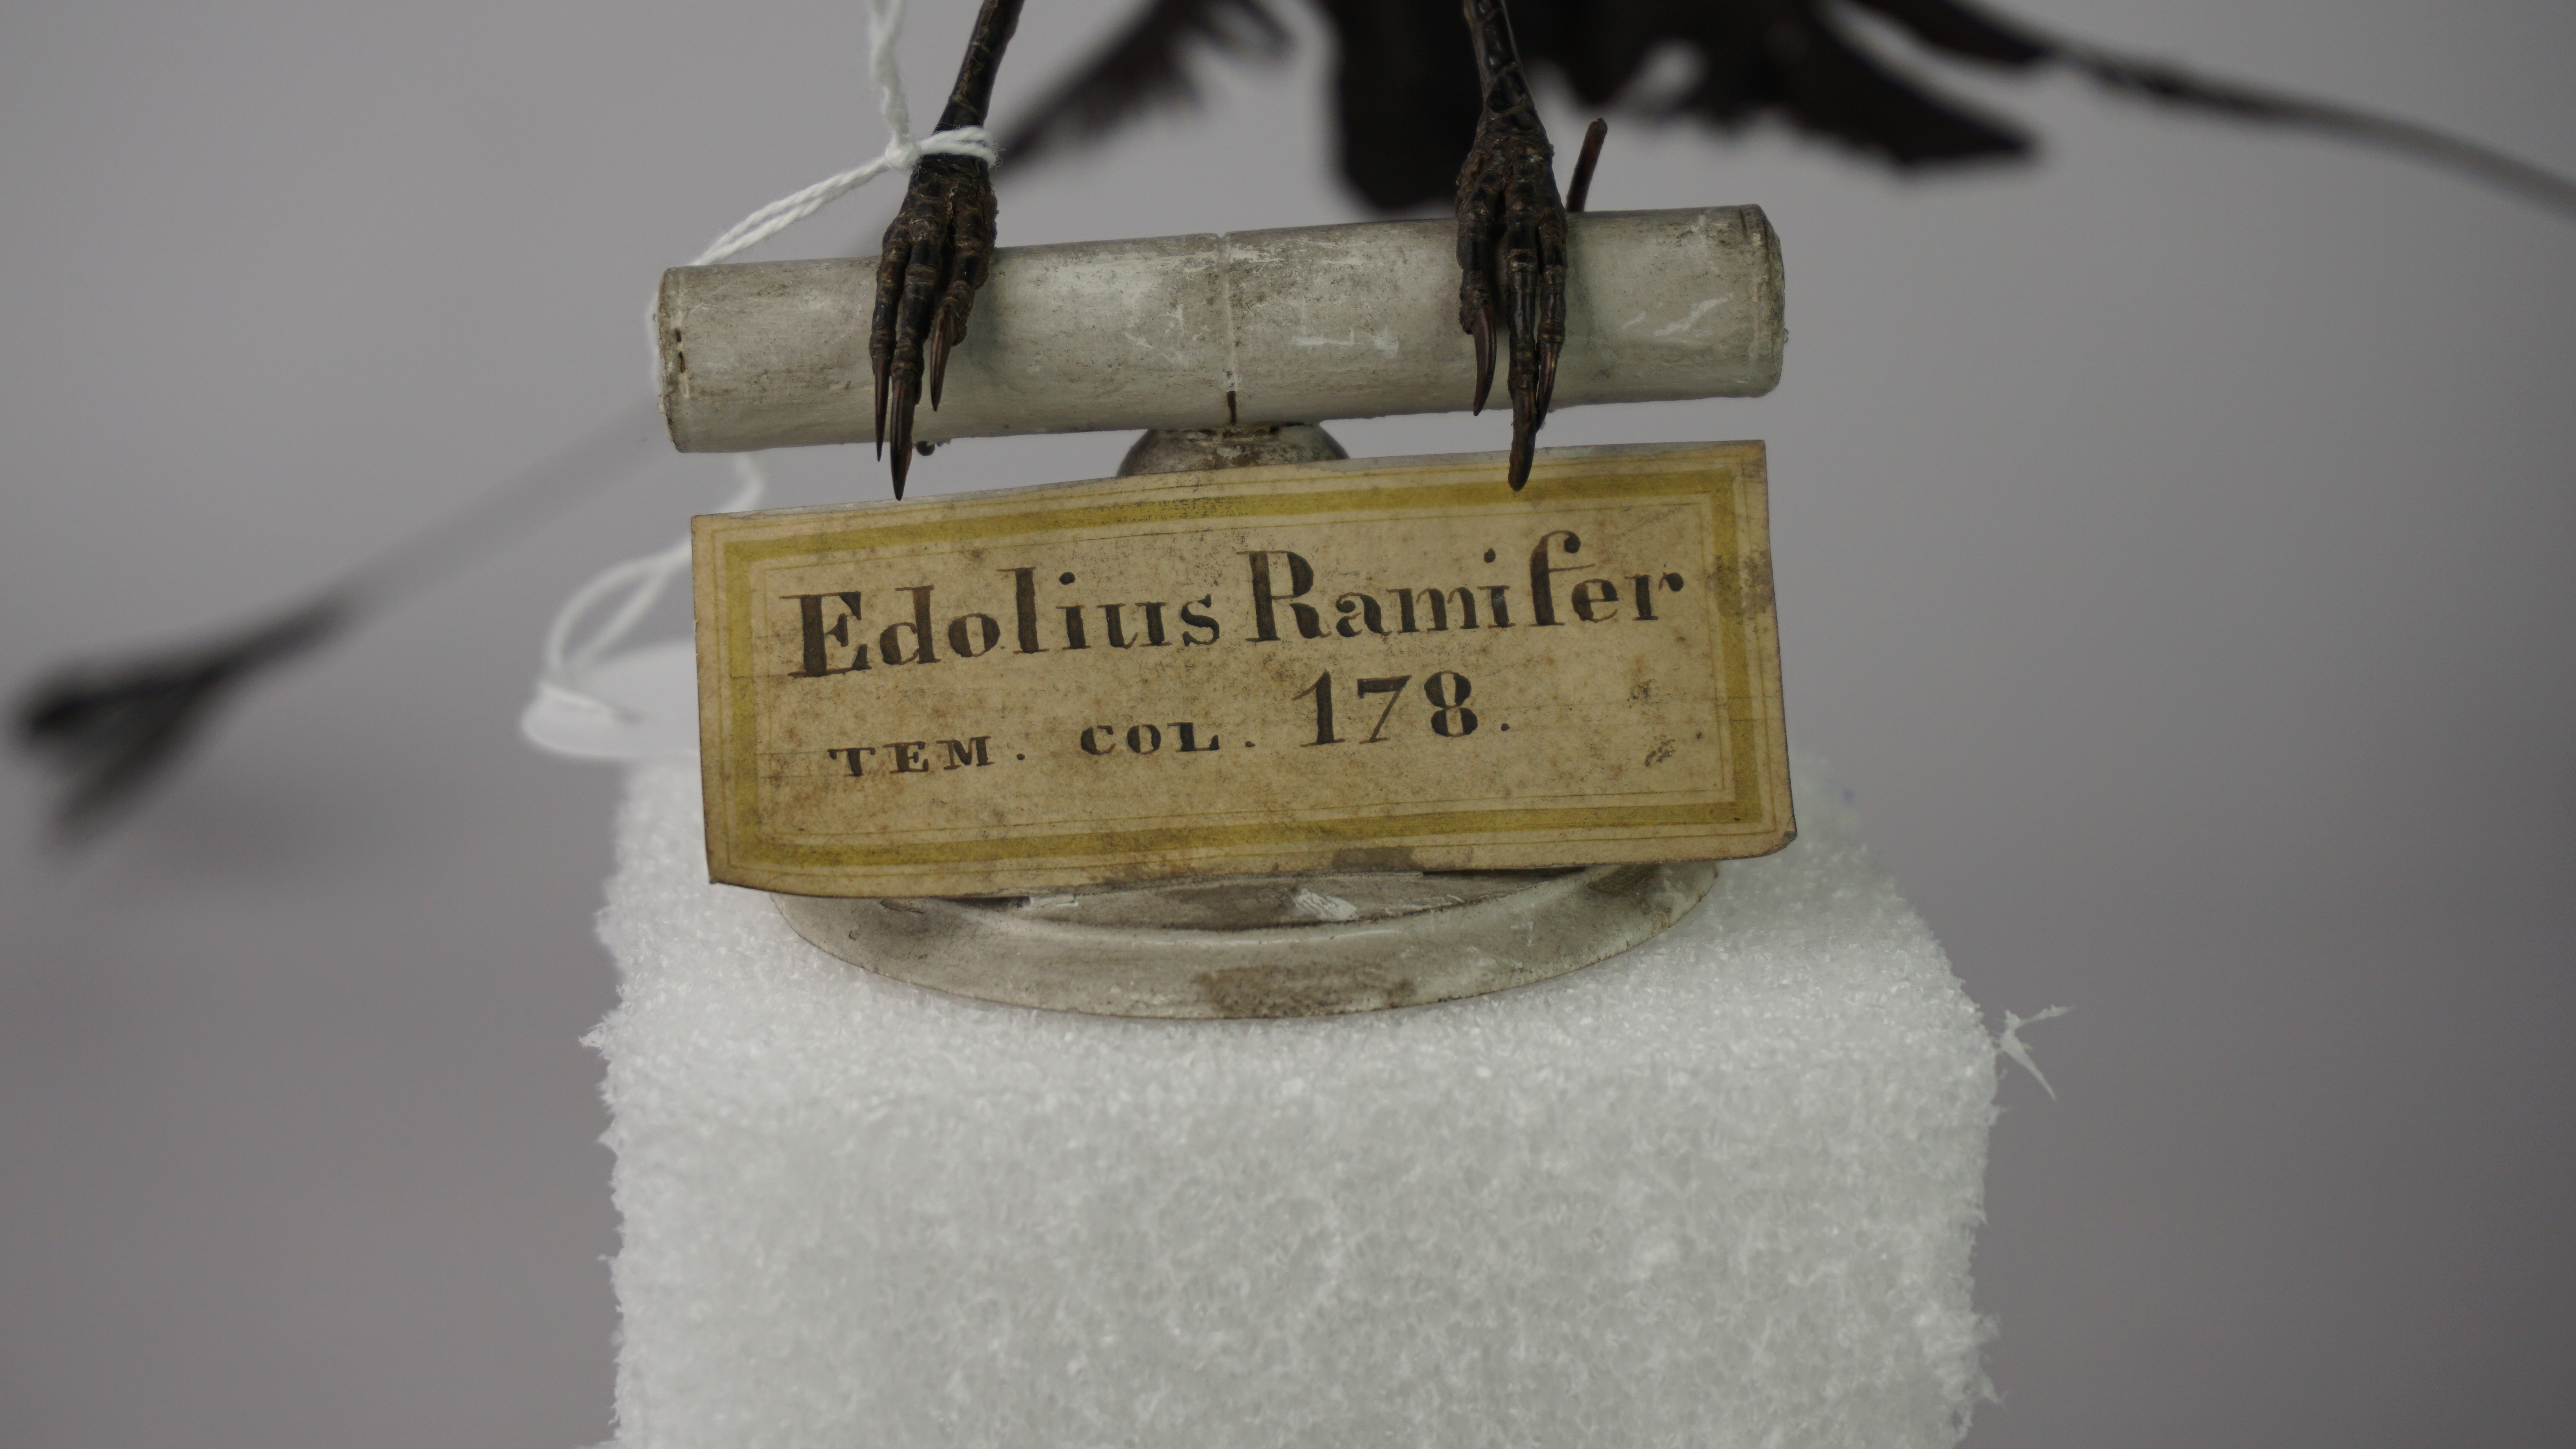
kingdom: Animalia
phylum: Chordata
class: Aves
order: Passeriformes
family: Dicruridae
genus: Dicrurus
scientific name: Dicrurus paradiseus
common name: Greater racket-tailed drongo
